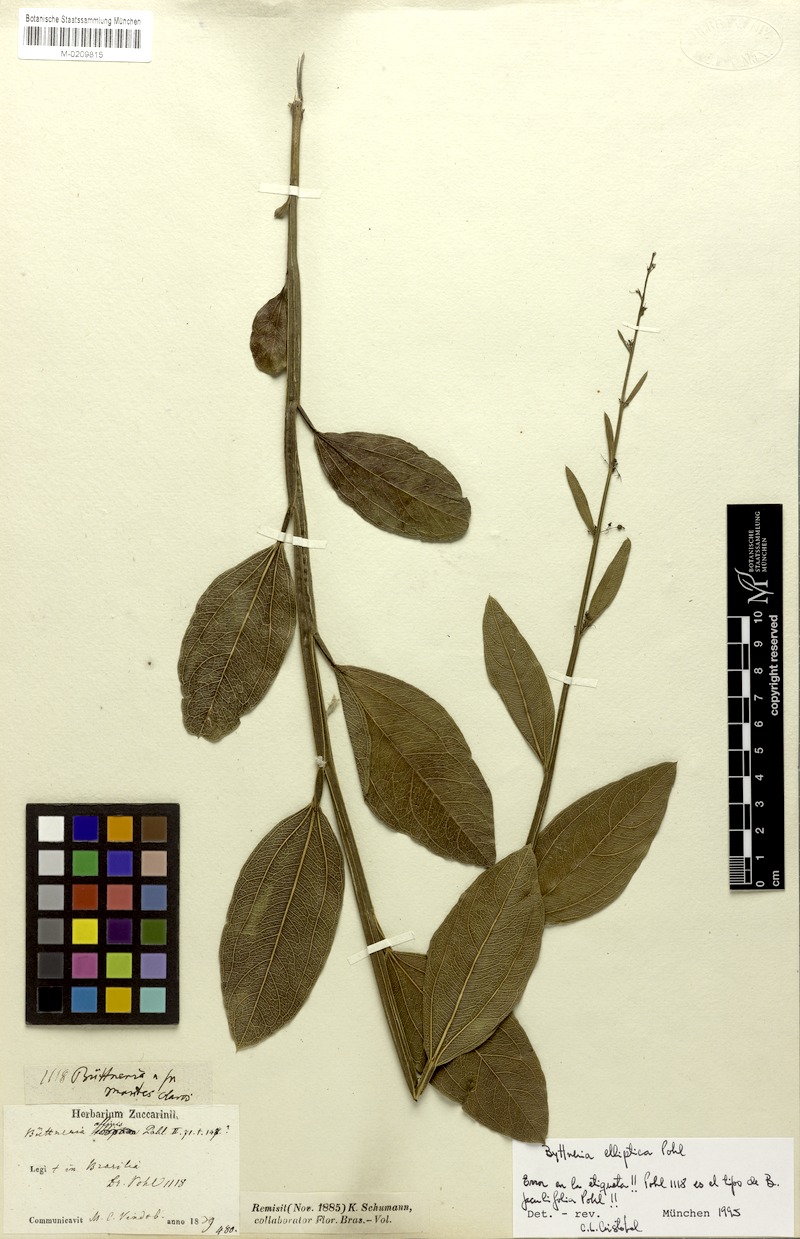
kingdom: Plantae
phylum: Tracheophyta
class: Magnoliopsida
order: Malvales
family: Malvaceae
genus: Byttneria
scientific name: Byttneria elliptica
